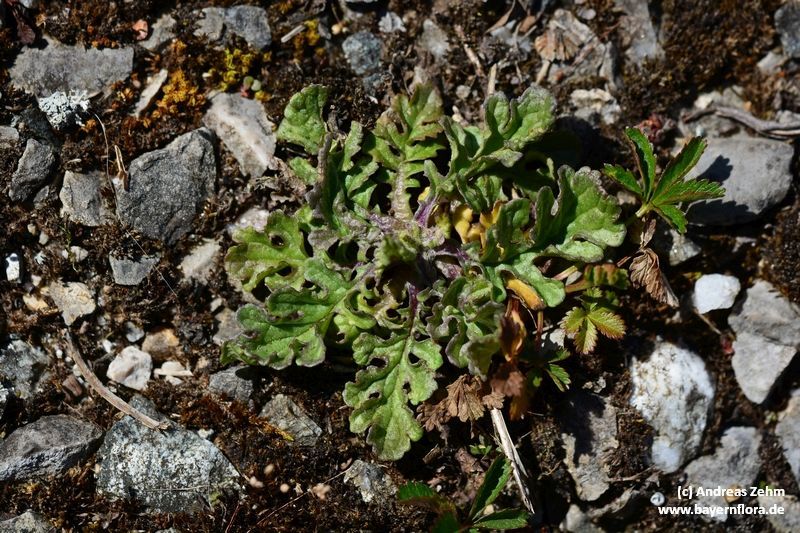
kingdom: Plantae
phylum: Tracheophyta
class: Magnoliopsida
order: Asterales
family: Asteraceae
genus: Jacobaea
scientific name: Jacobaea vulgaris
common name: Stinking willie
